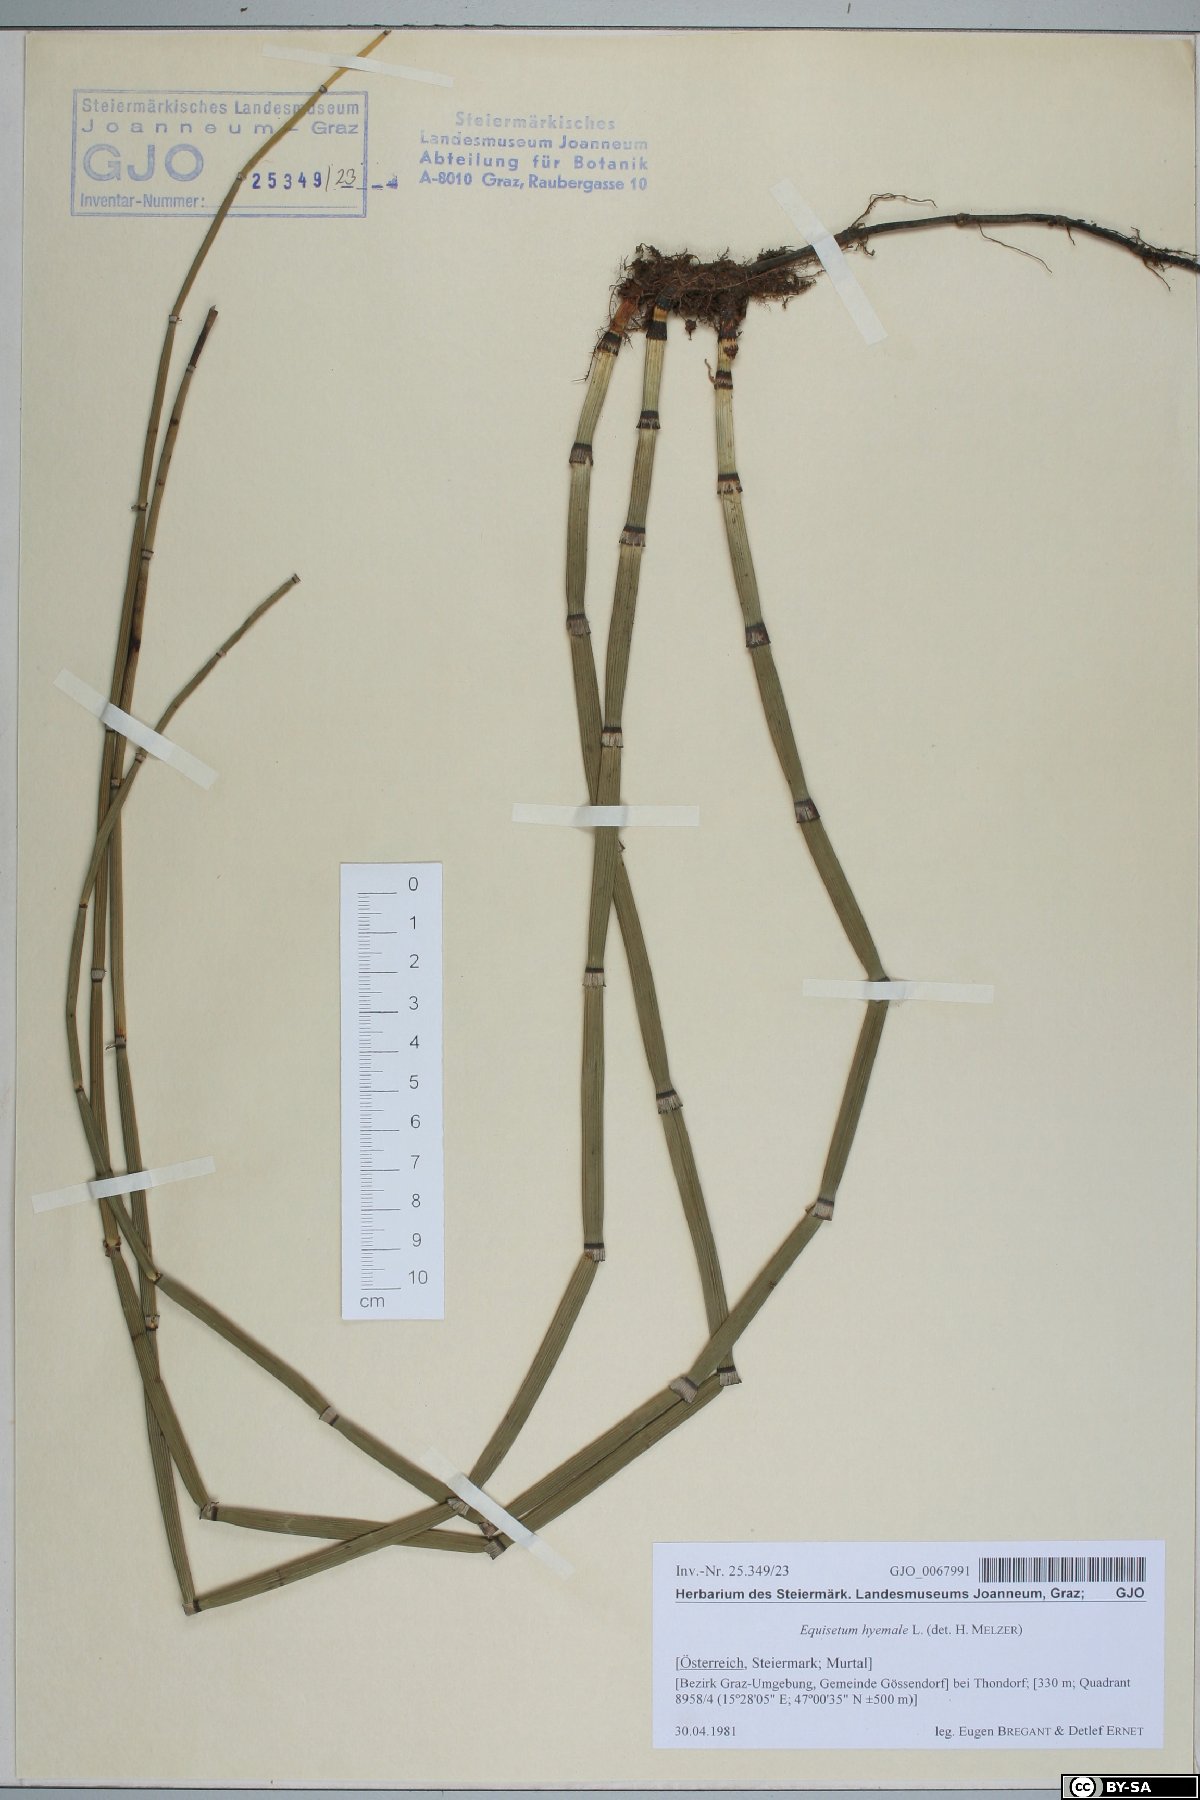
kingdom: Plantae
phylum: Tracheophyta
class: Polypodiopsida
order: Equisetales
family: Equisetaceae
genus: Equisetum
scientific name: Equisetum hyemale
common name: Rough horsetail
